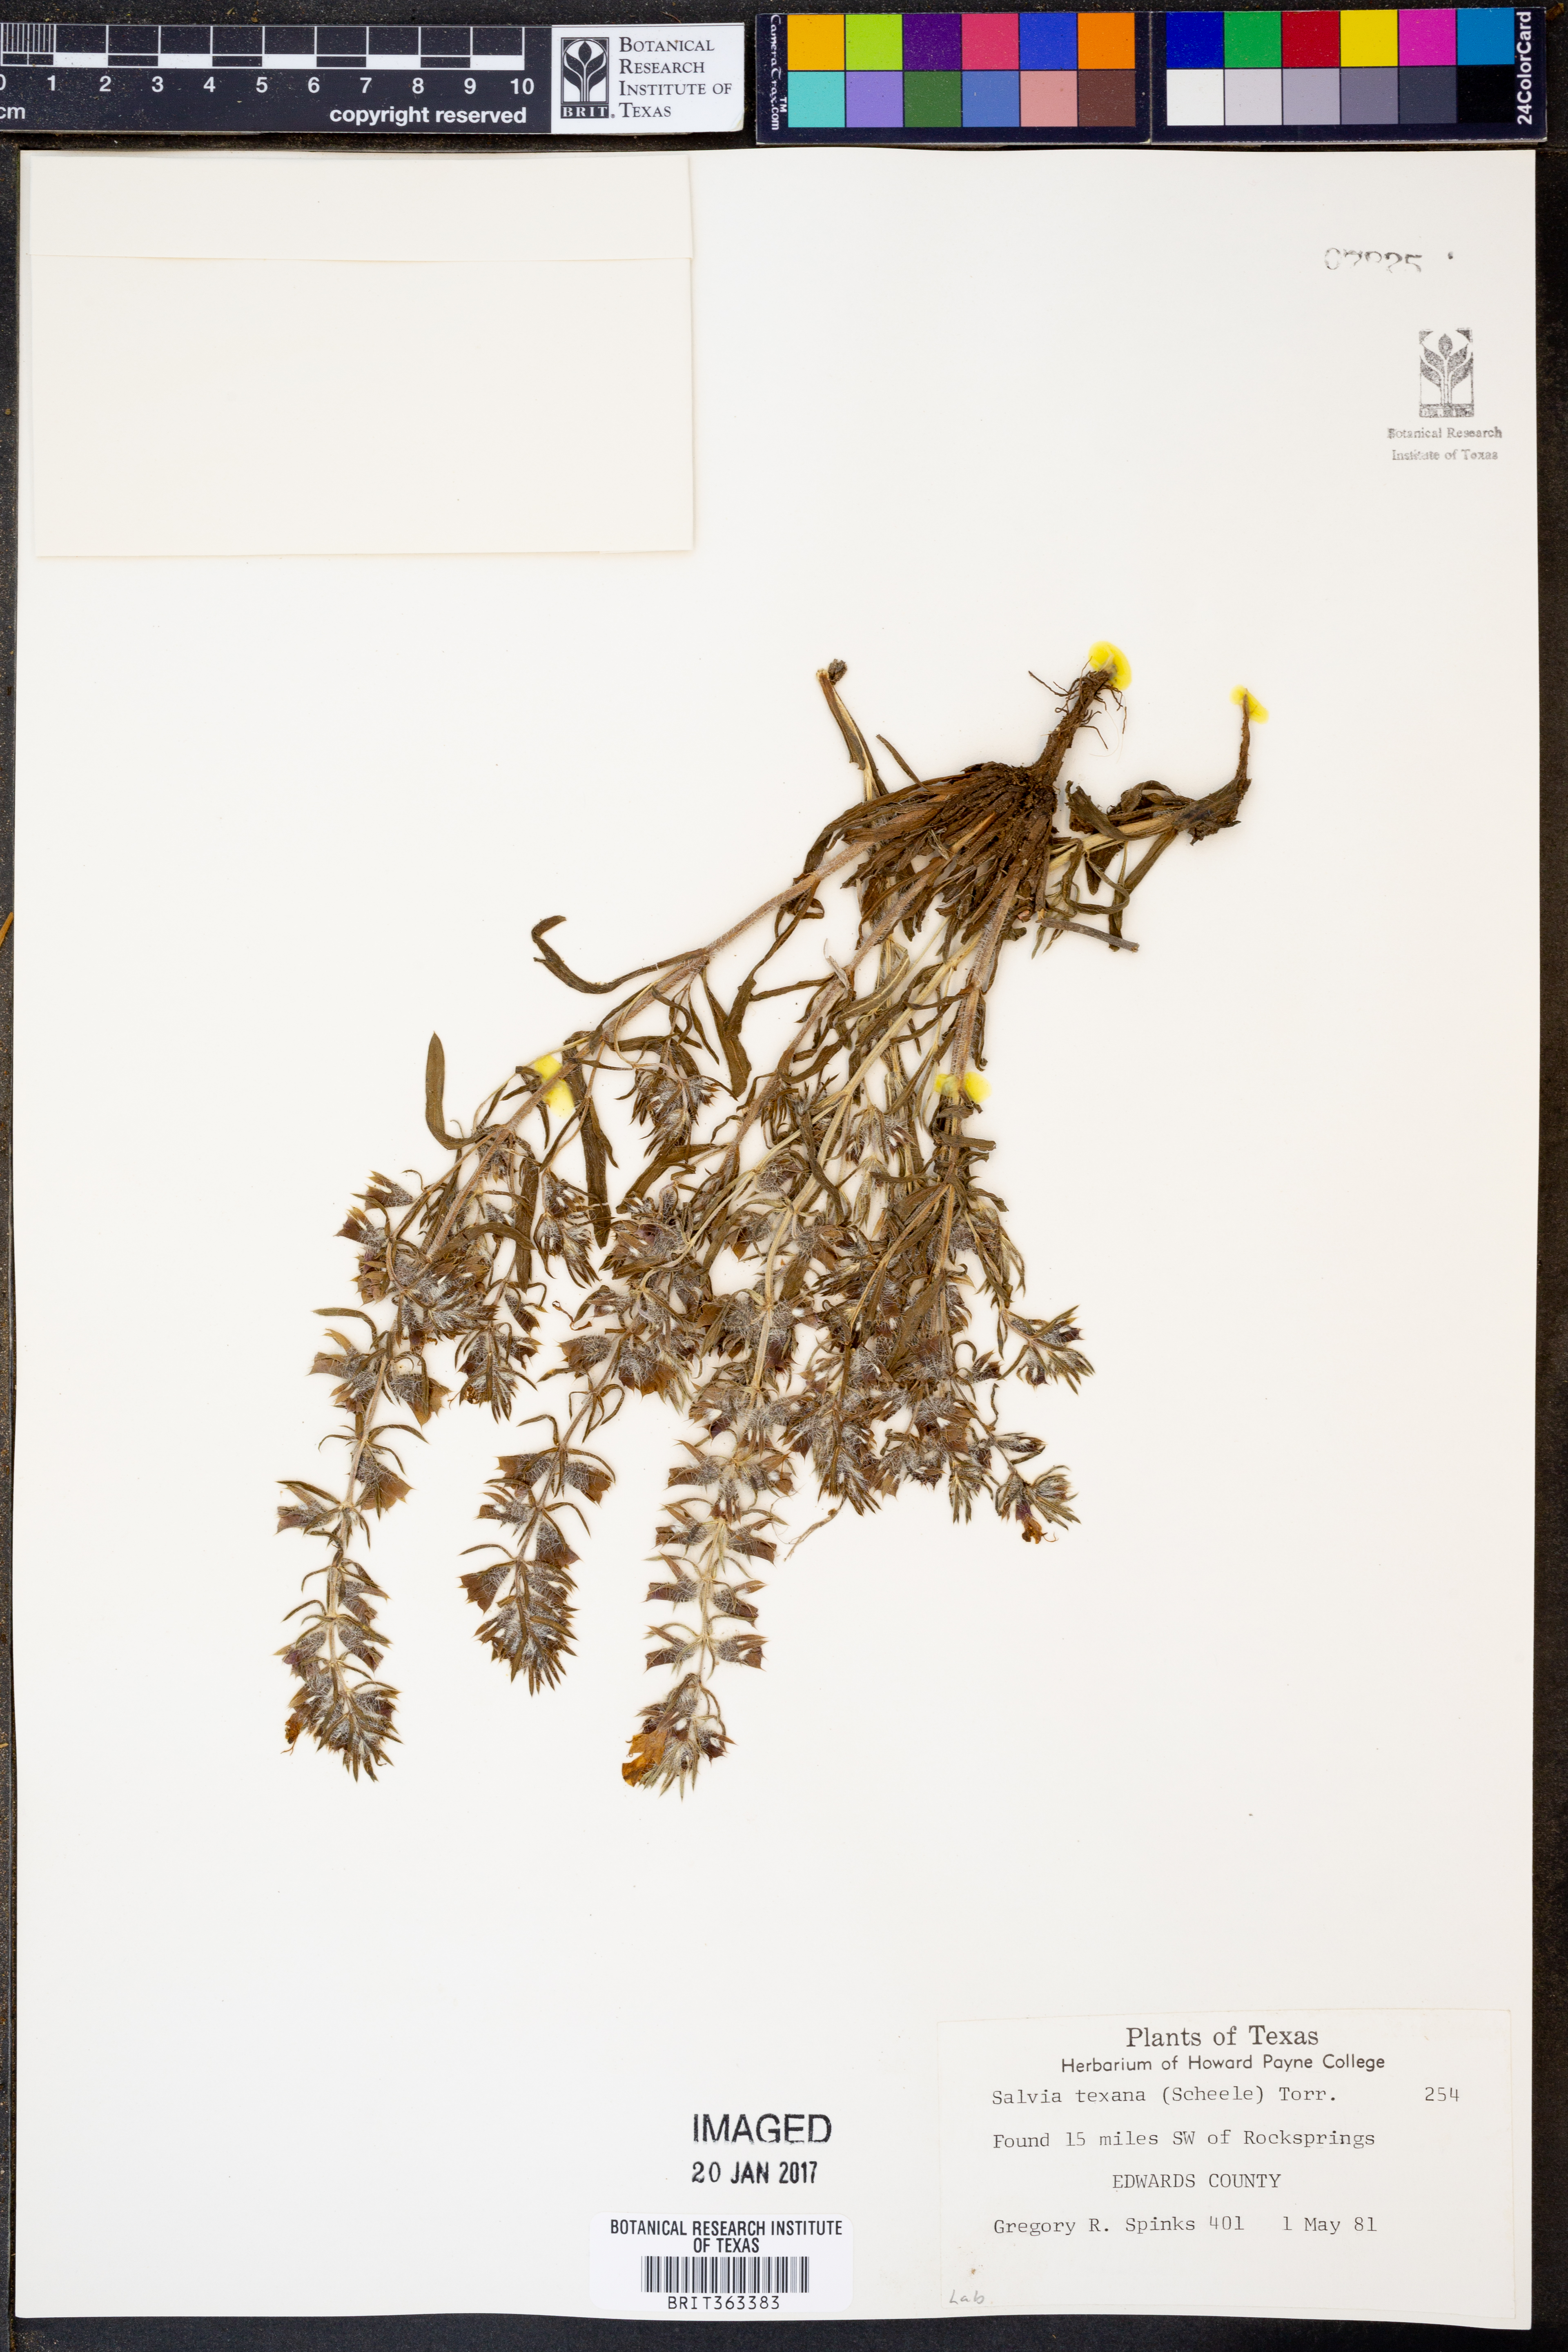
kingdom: Plantae
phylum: Tracheophyta
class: Magnoliopsida
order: Lamiales
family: Lamiaceae
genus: Salvia
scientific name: Salvia texana
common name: Texas sage
